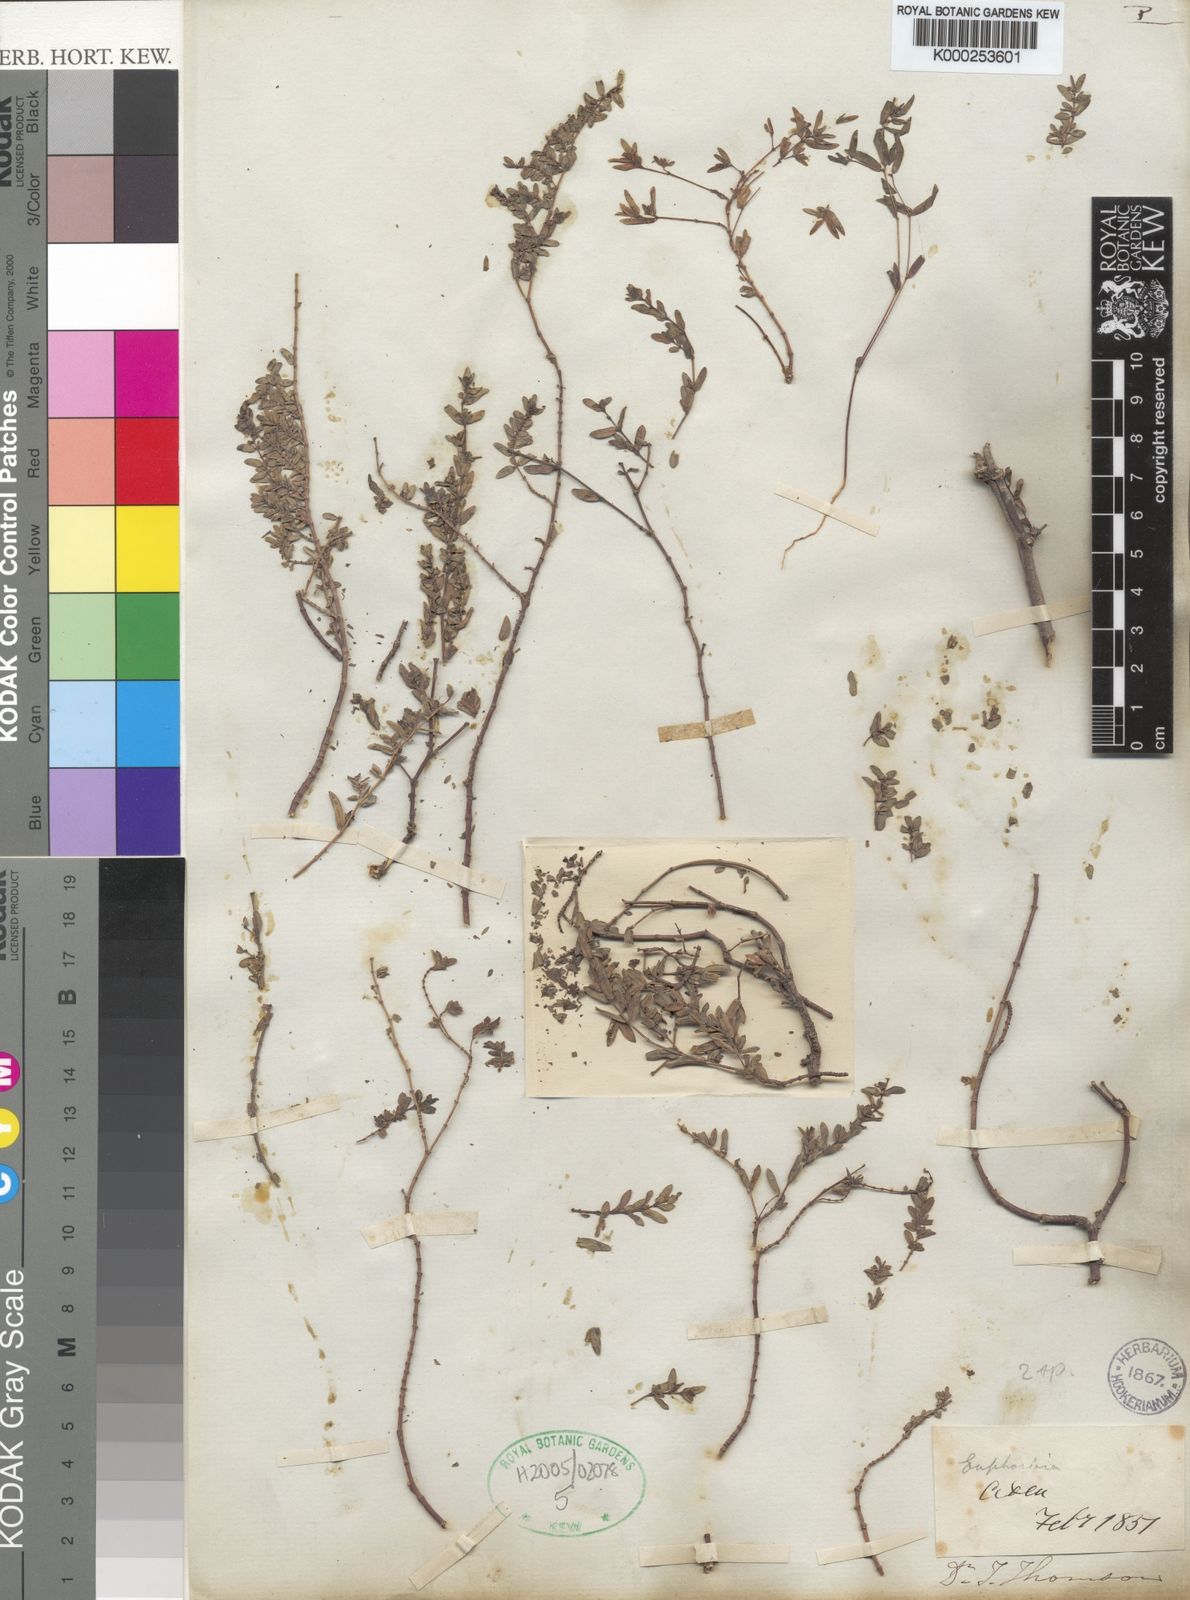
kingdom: Plantae
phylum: Tracheophyta
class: Magnoliopsida
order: Malpighiales
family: Euphorbiaceae
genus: Euphorbia
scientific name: Euphorbia arabica
